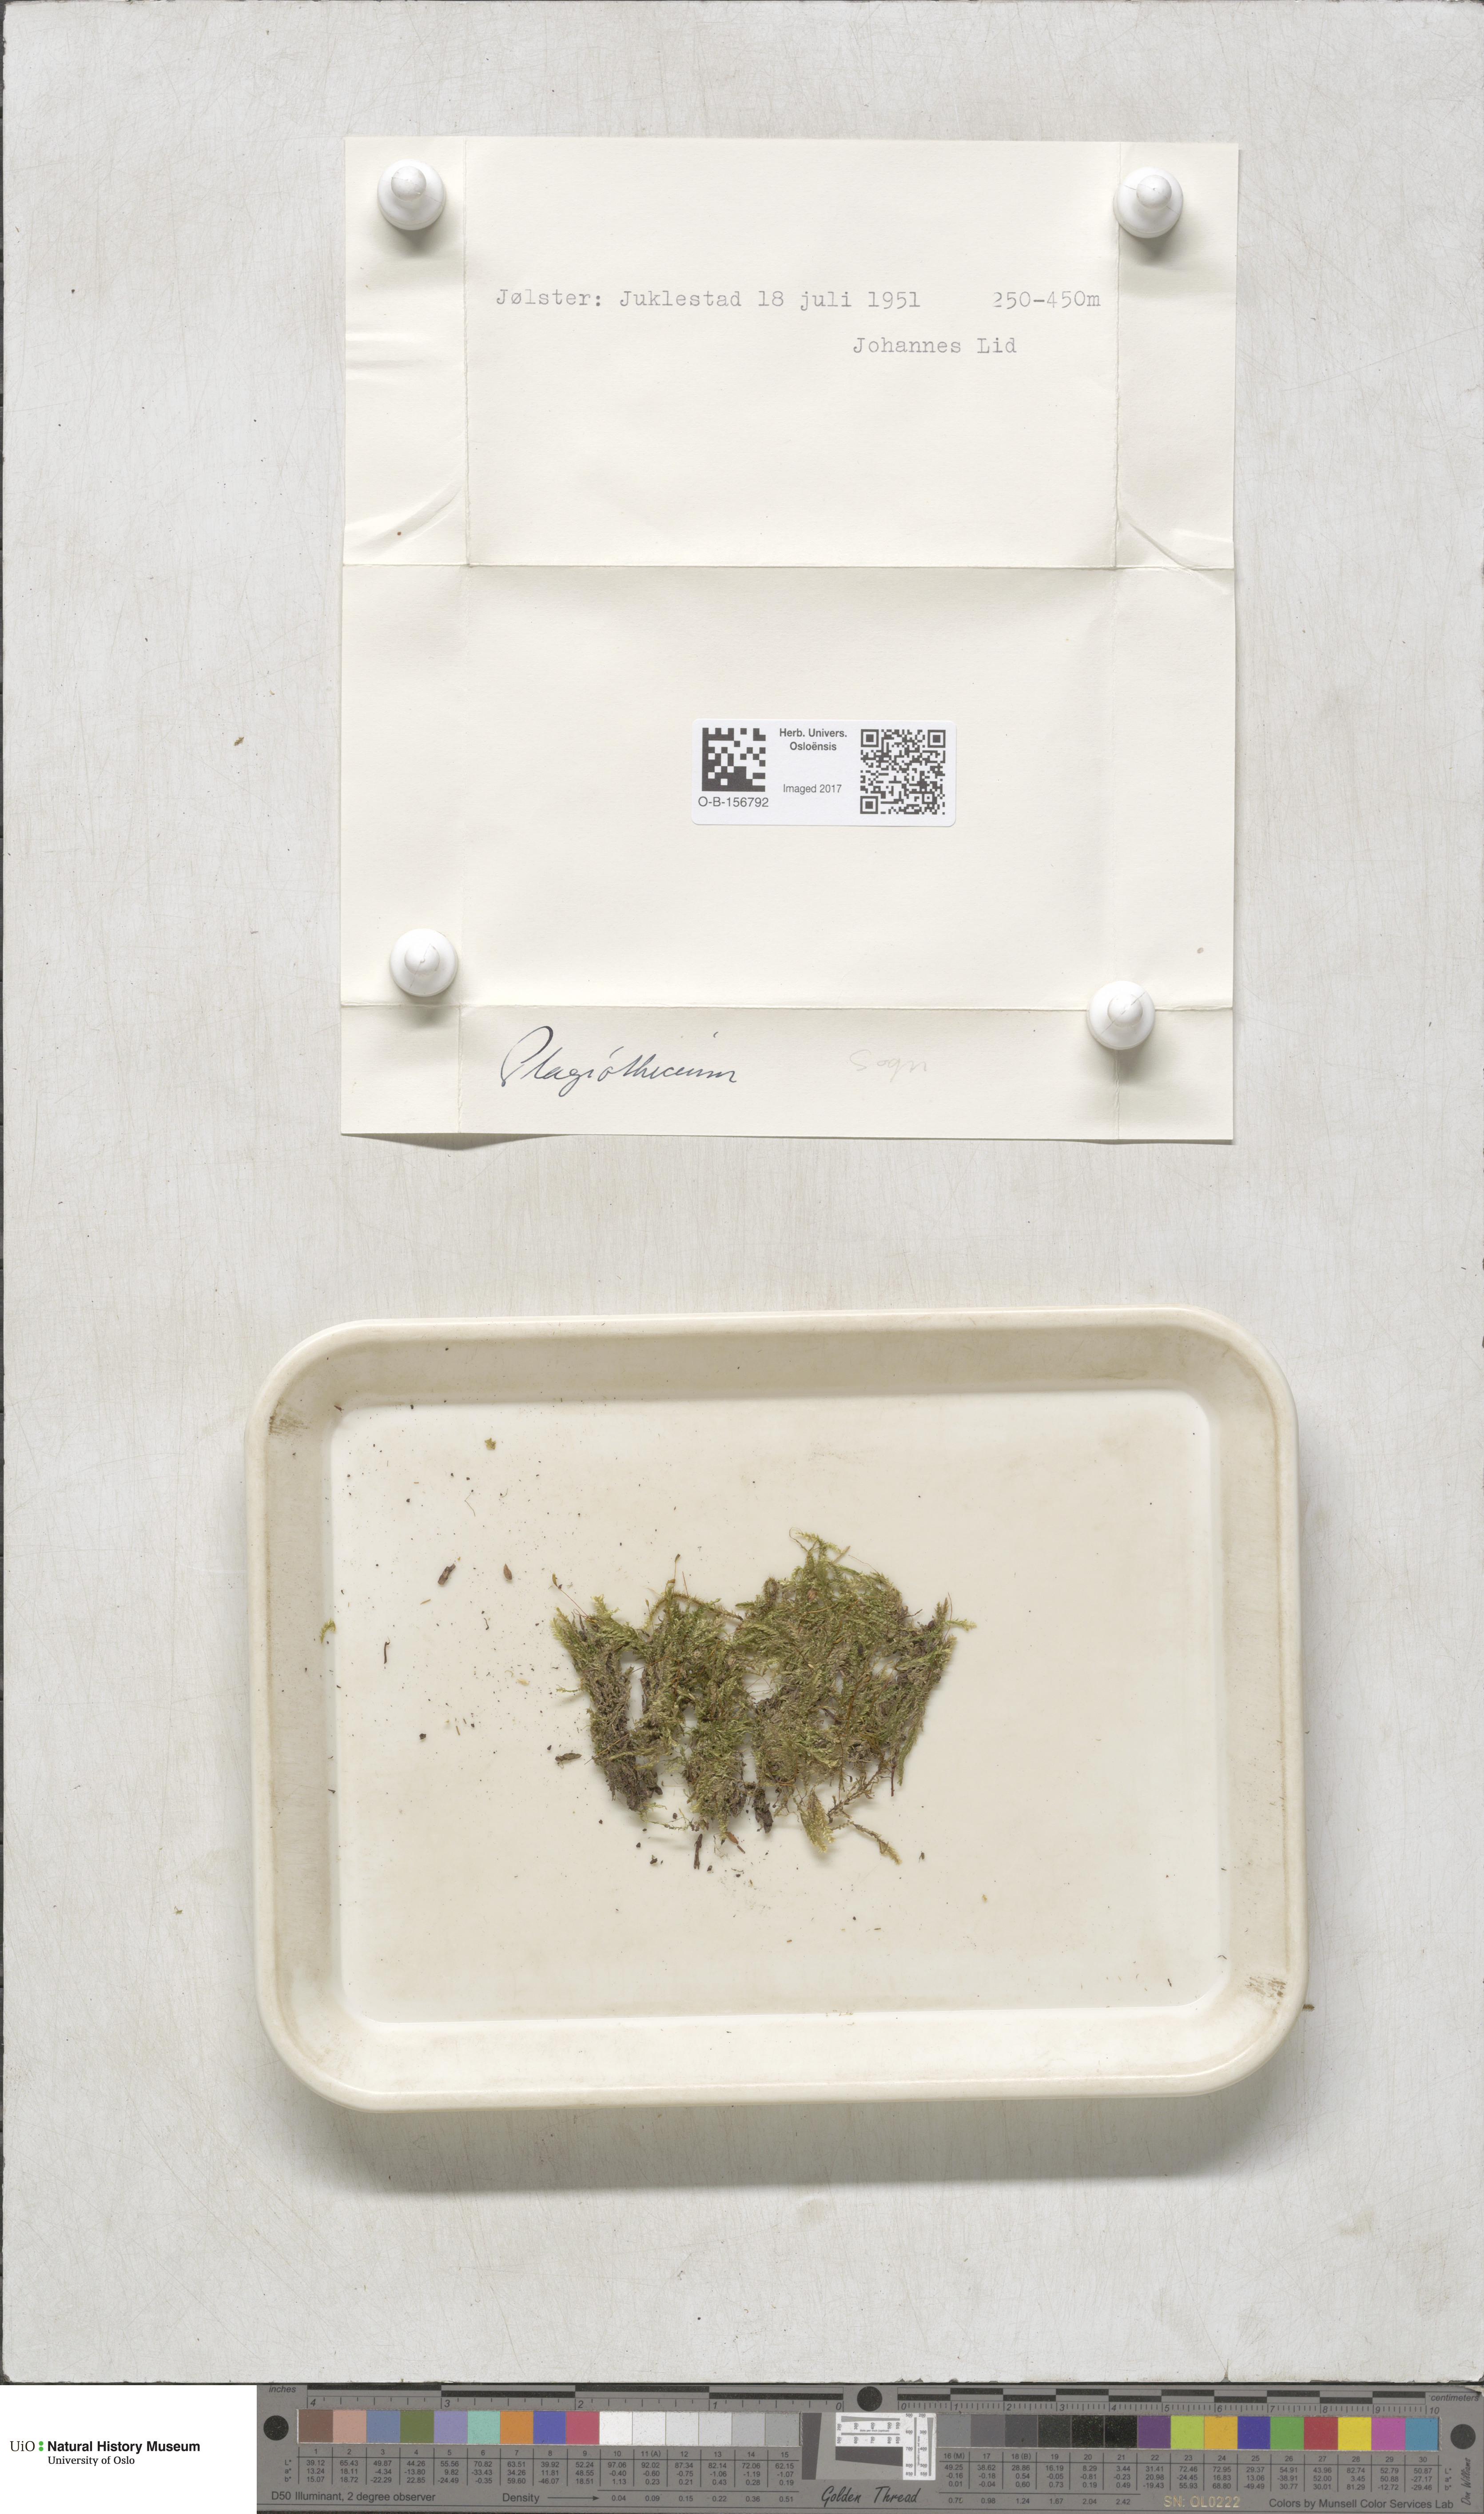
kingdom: Plantae
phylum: Bryophyta
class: Bryopsida
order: Hypnales
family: Plagiotheciaceae
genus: Plagiothecium
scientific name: Plagiothecium
